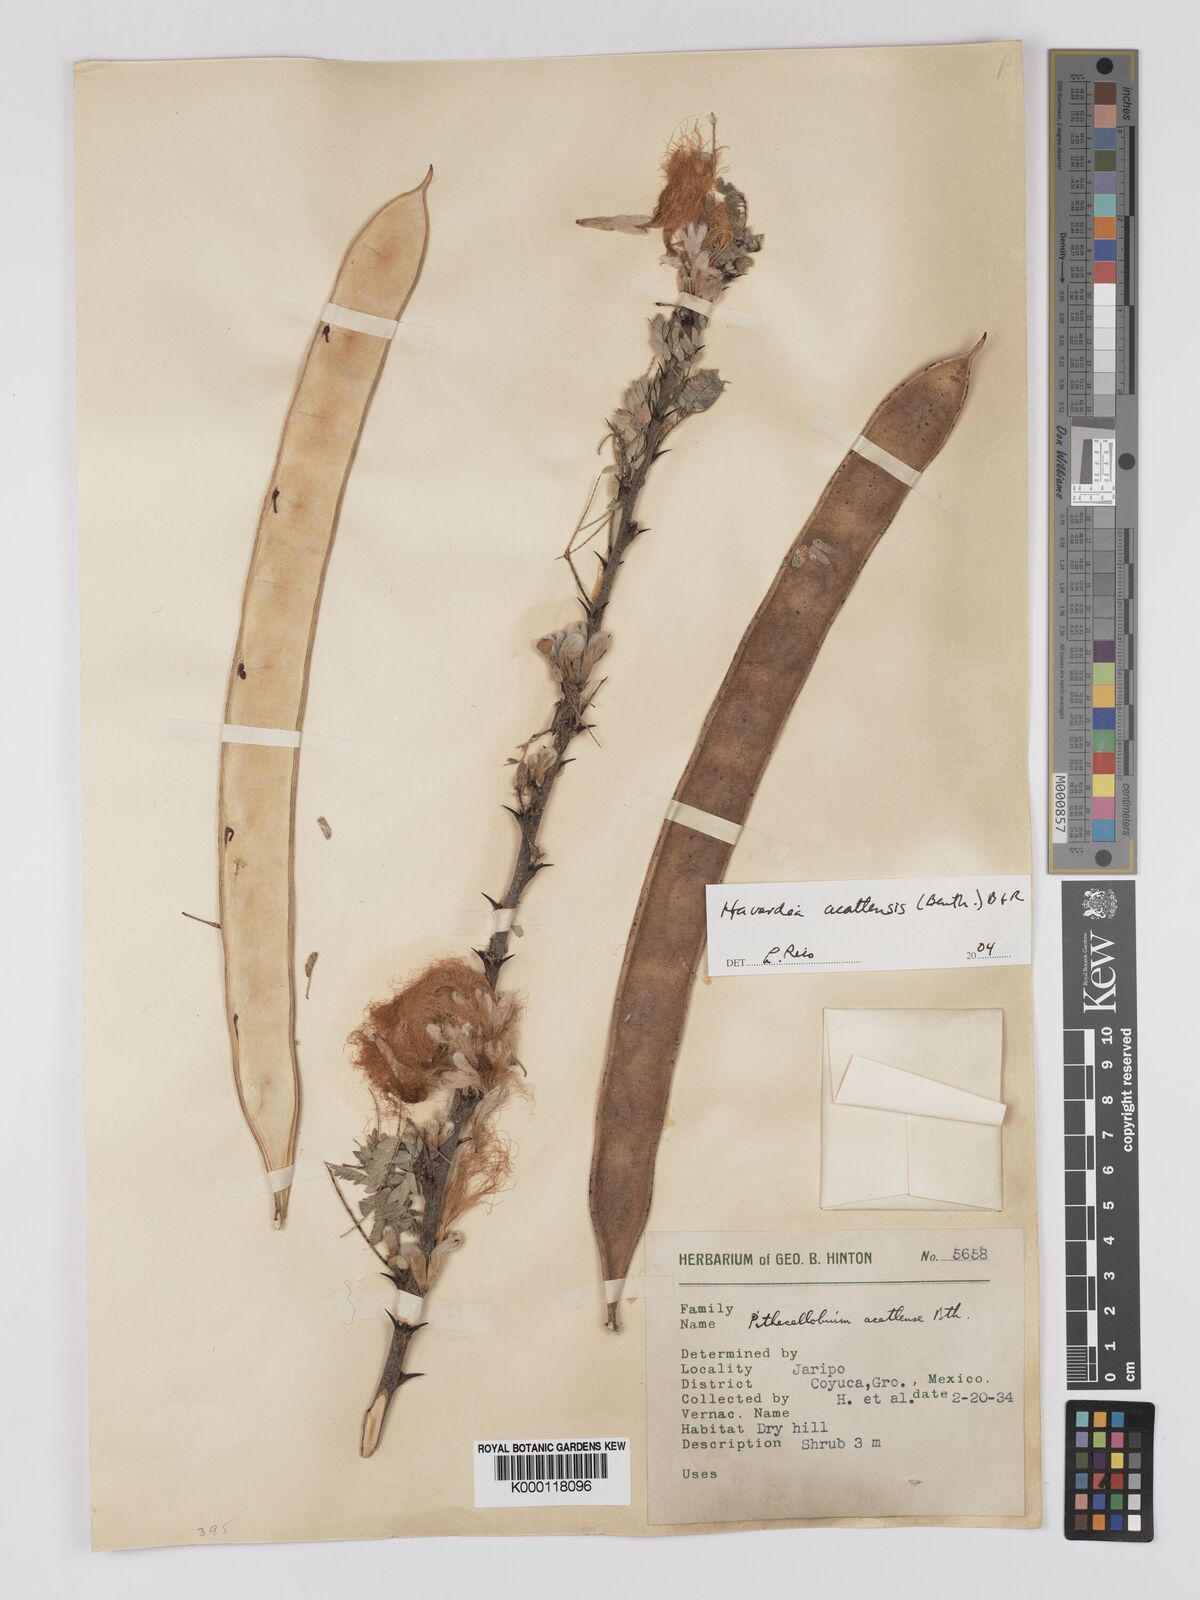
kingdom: Plantae
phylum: Tracheophyta
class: Magnoliopsida
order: Fabales
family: Fabaceae
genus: Havardia
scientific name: Havardia acatlensis
